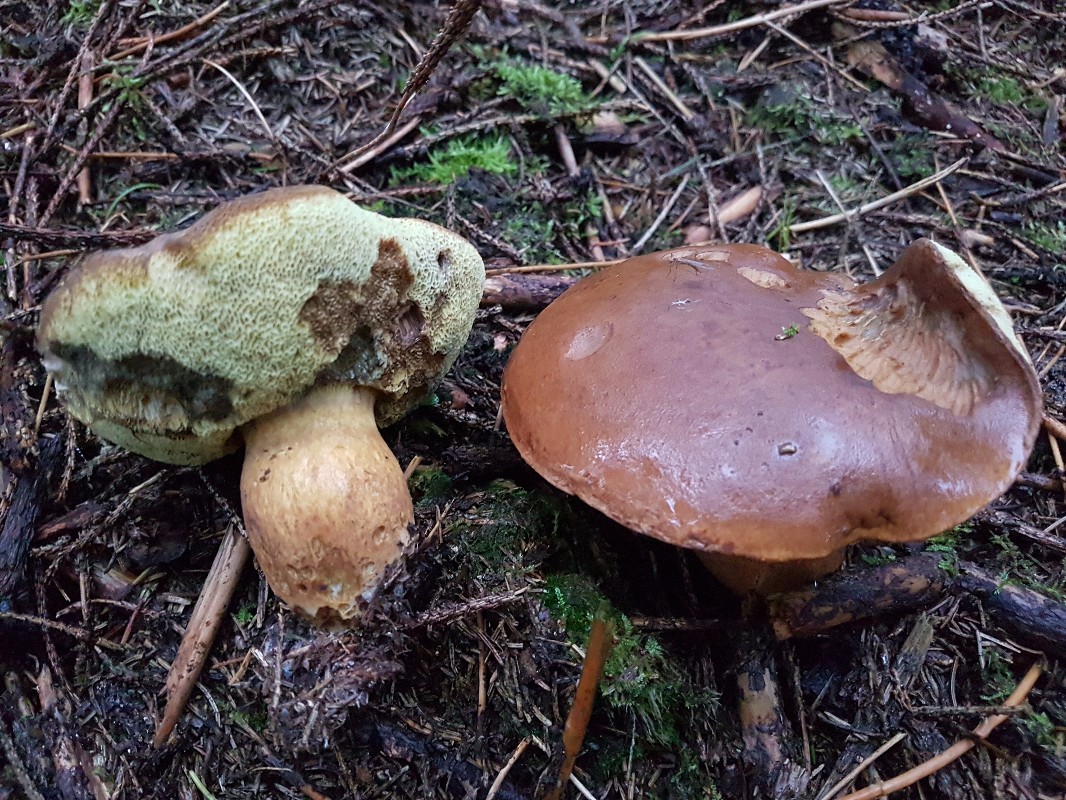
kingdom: Fungi
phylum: Basidiomycota
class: Agaricomycetes
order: Boletales
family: Boletaceae
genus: Imleria
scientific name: Imleria badia
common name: brunstokket rørhat
